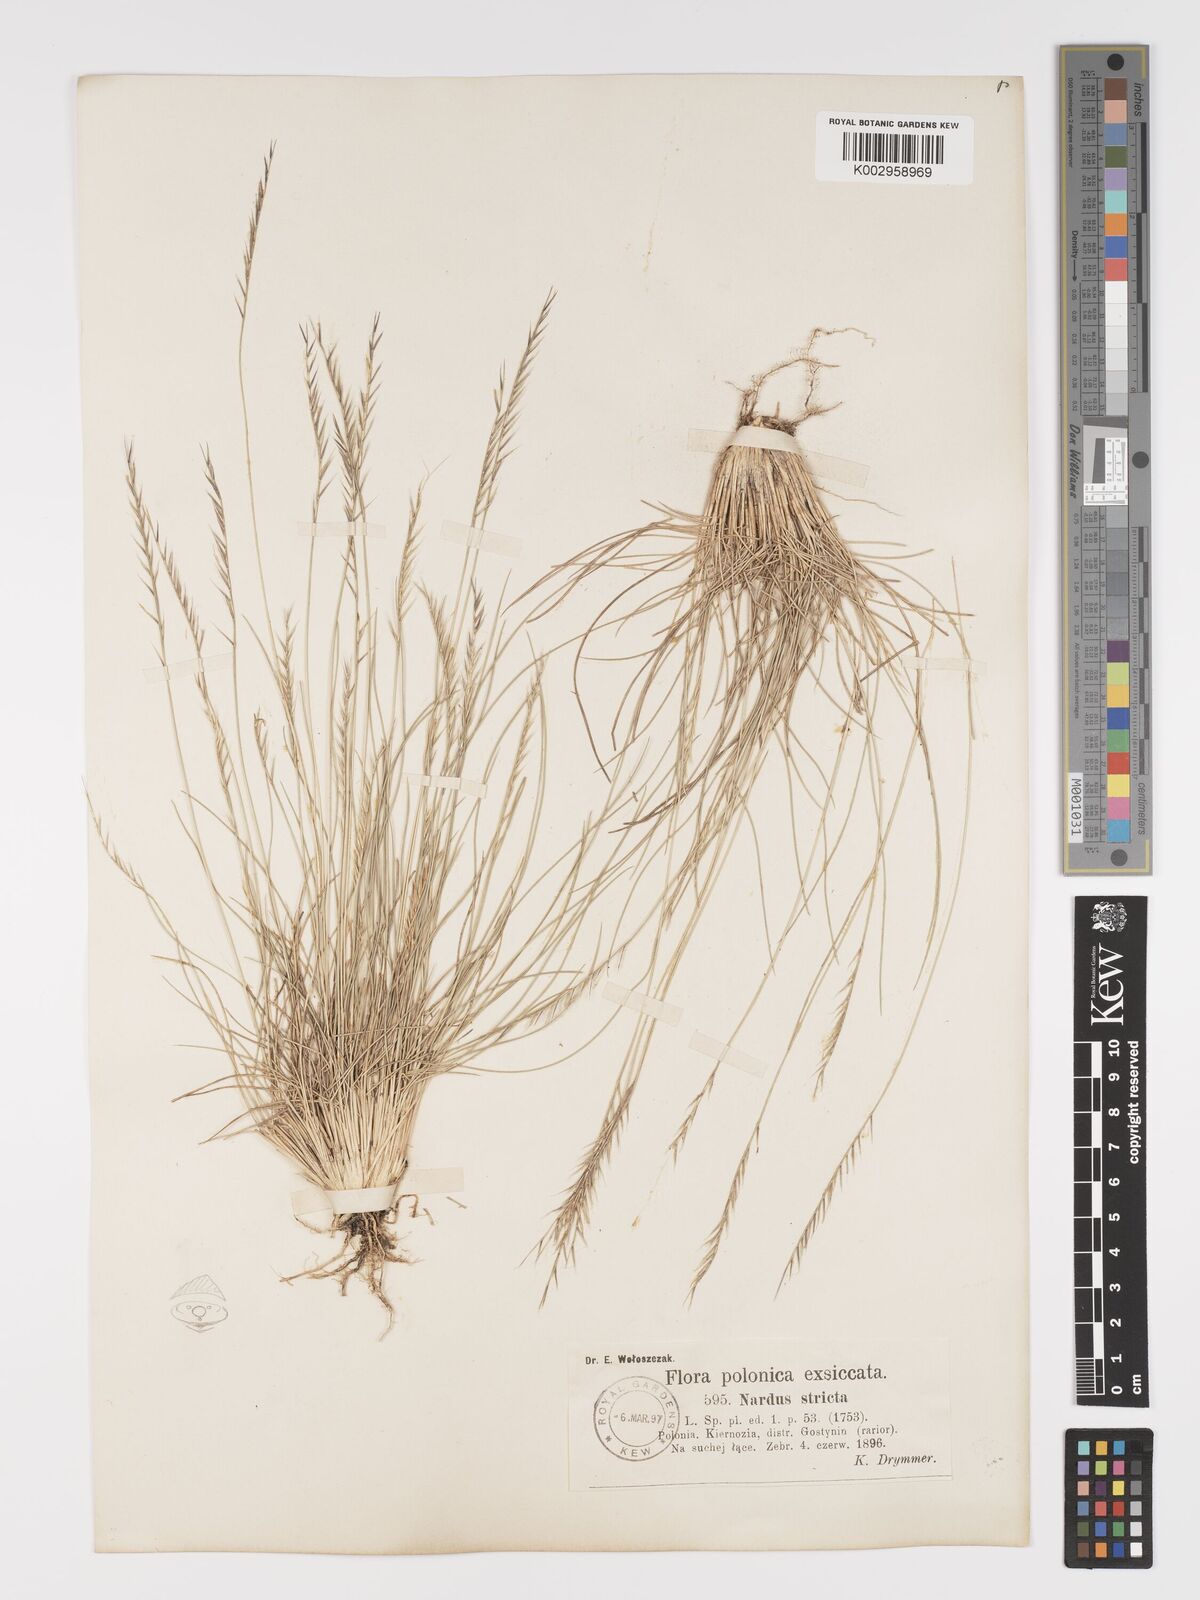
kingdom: Plantae
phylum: Tracheophyta
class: Liliopsida
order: Poales
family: Poaceae
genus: Nardus
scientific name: Nardus stricta
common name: Mat-grass
